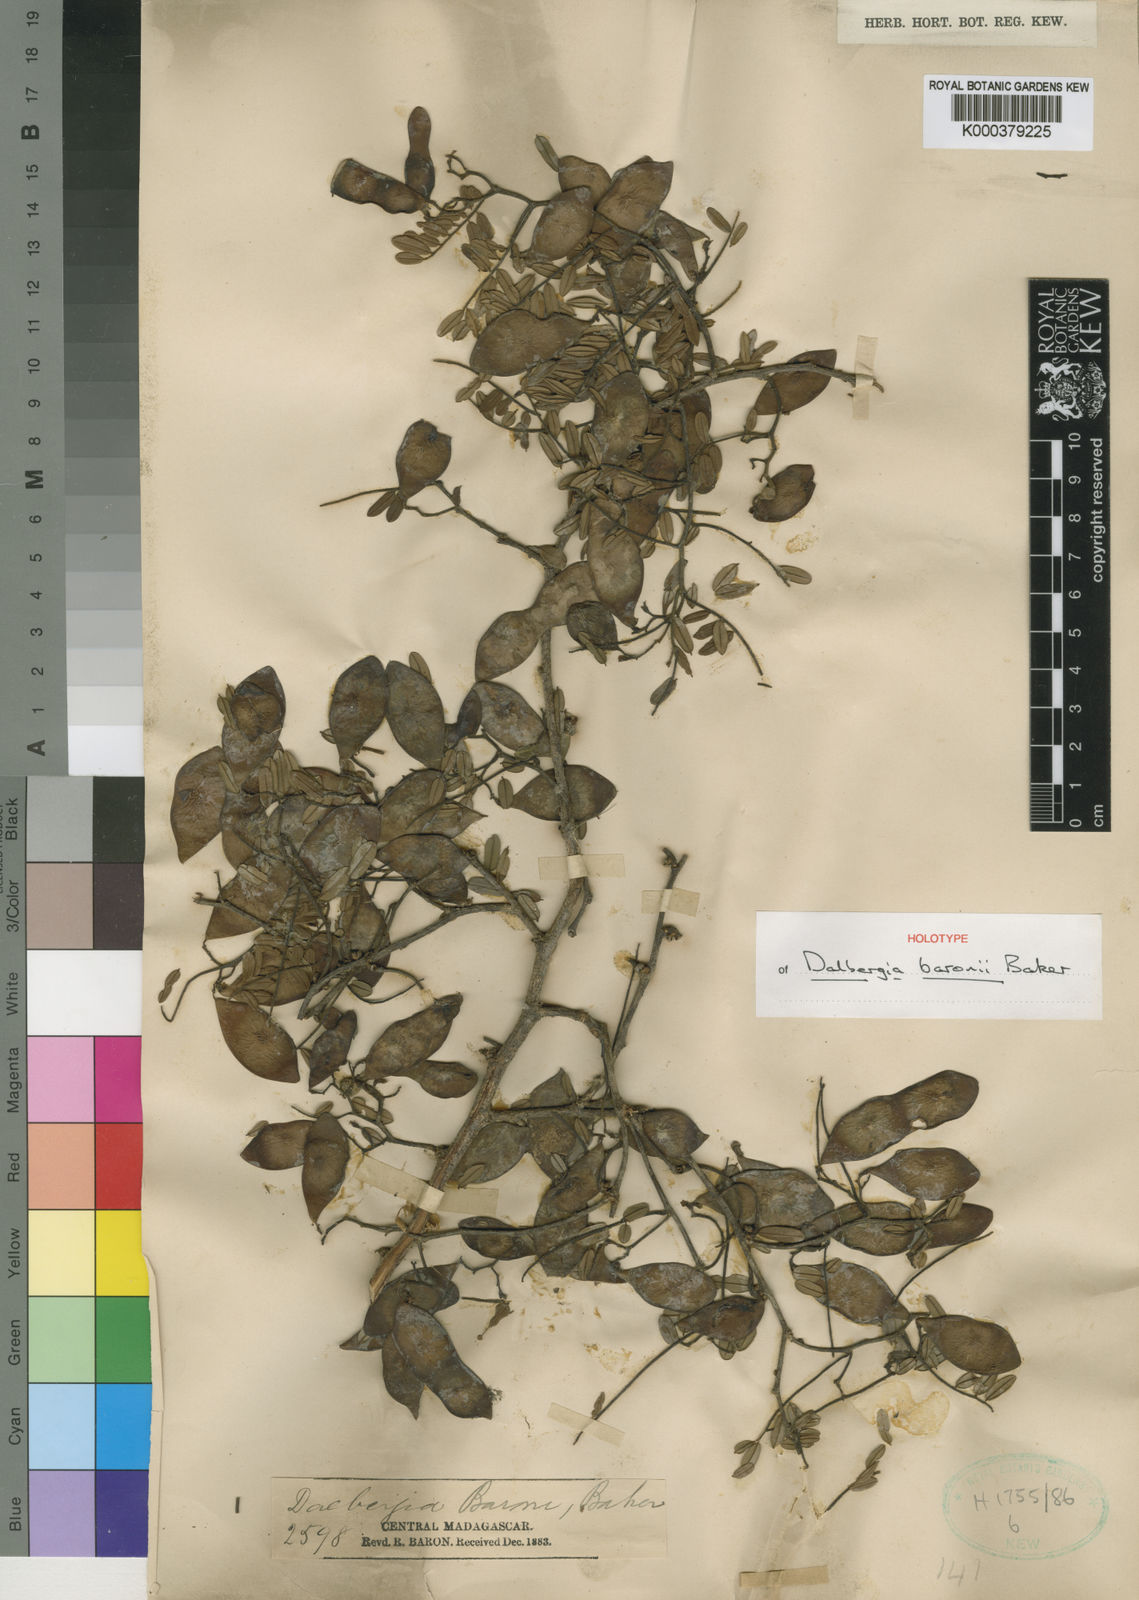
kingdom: Plantae
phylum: Tracheophyta
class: Magnoliopsida
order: Fabales
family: Fabaceae
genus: Dalbergia
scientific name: Dalbergia baronii
